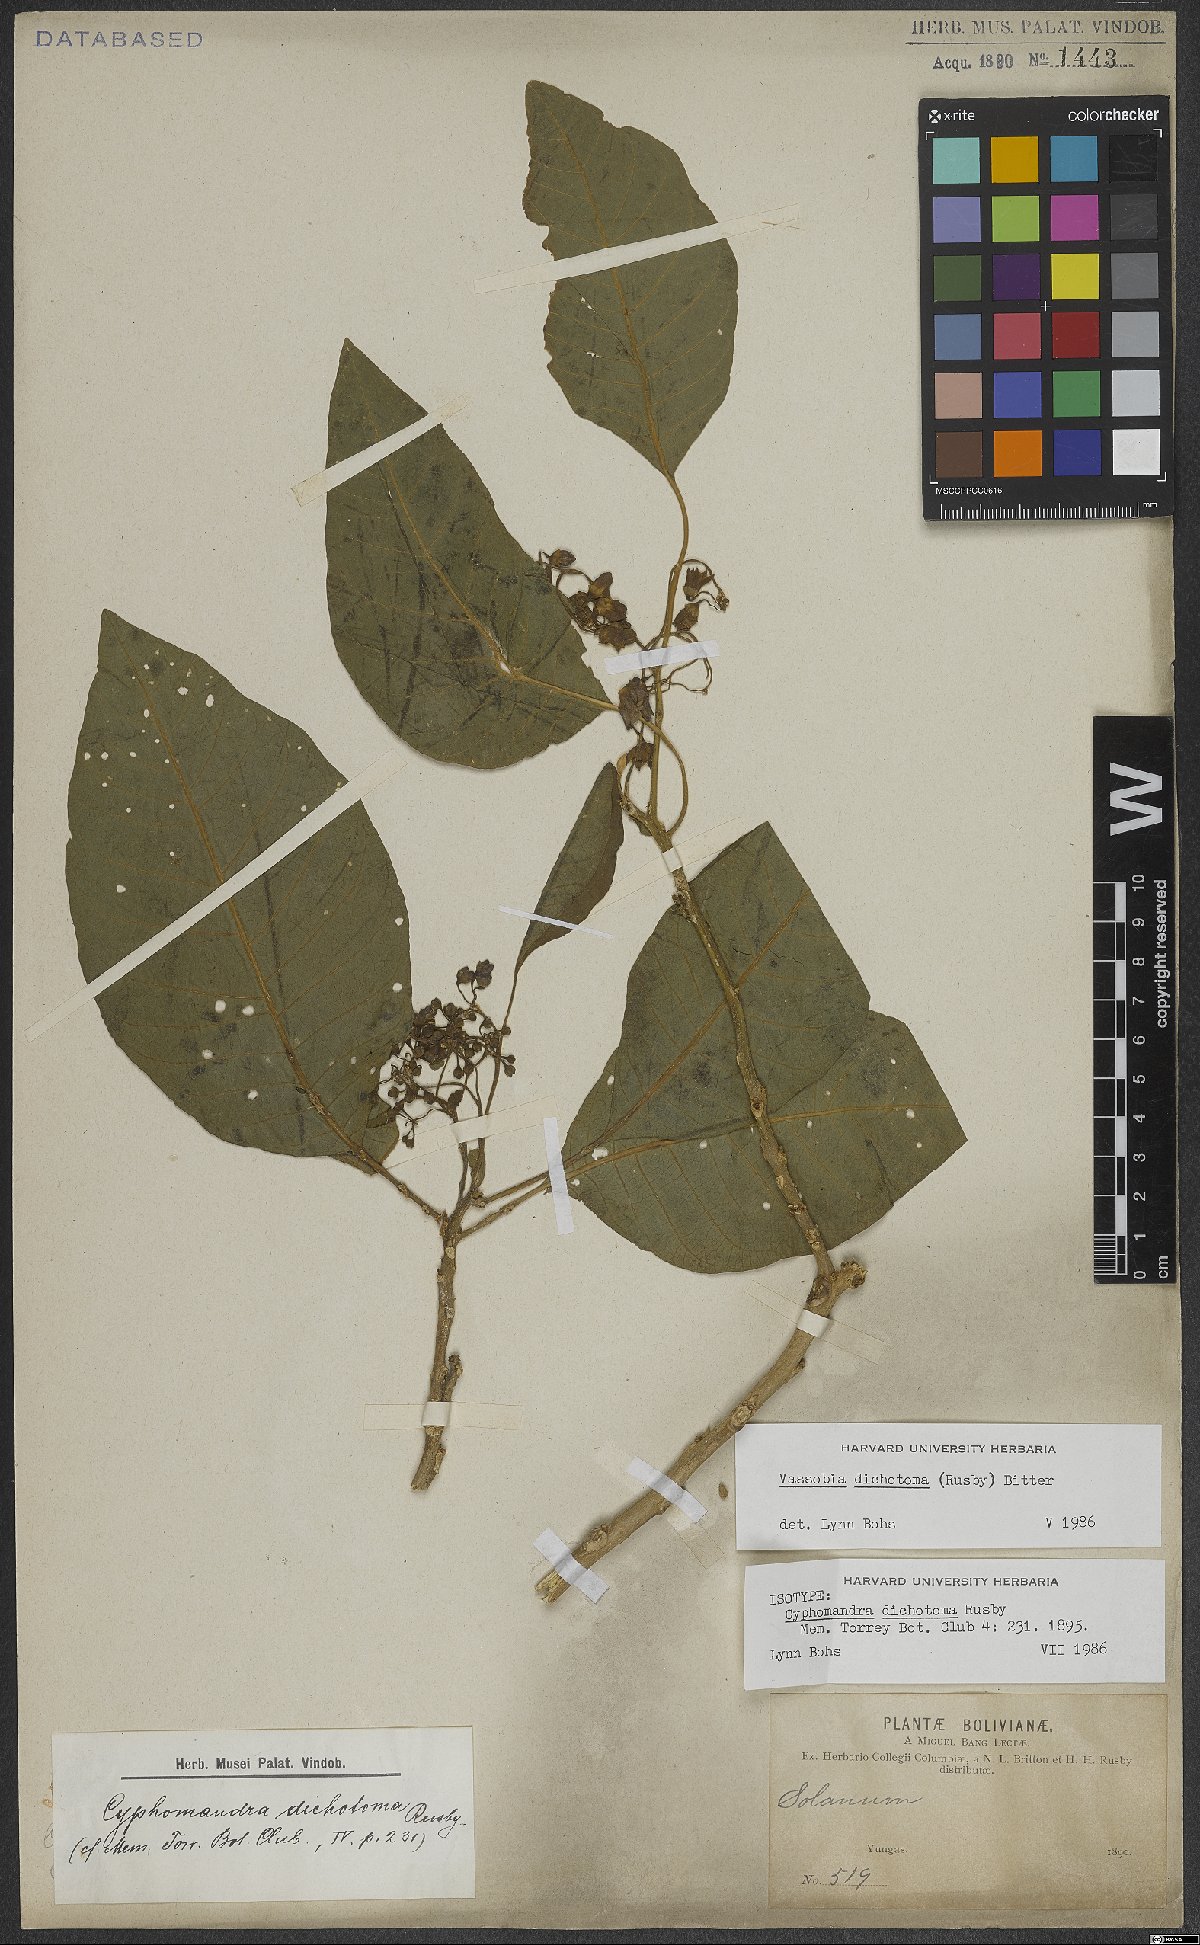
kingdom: Plantae
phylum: Tracheophyta
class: Magnoliopsida
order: Solanales
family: Solanaceae
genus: Vassobia
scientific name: Vassobia dichotoma
